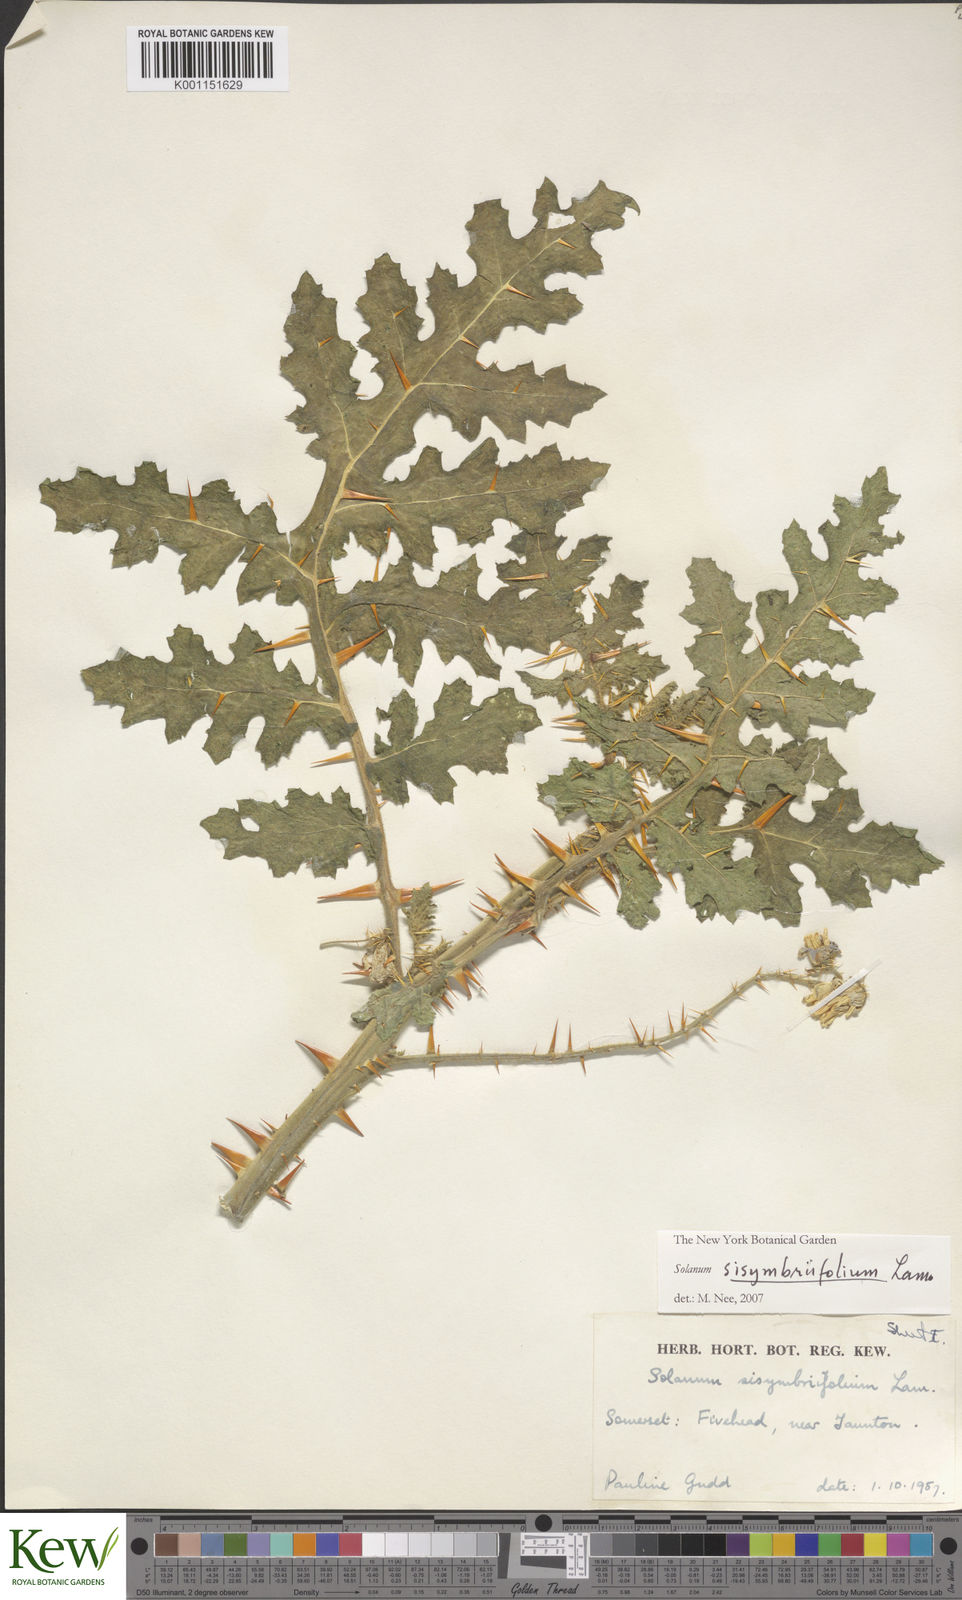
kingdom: Plantae
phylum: Tracheophyta
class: Magnoliopsida
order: Solanales
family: Solanaceae
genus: Solanum
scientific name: Solanum sisymbriifolium
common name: Red buffalo-bur
